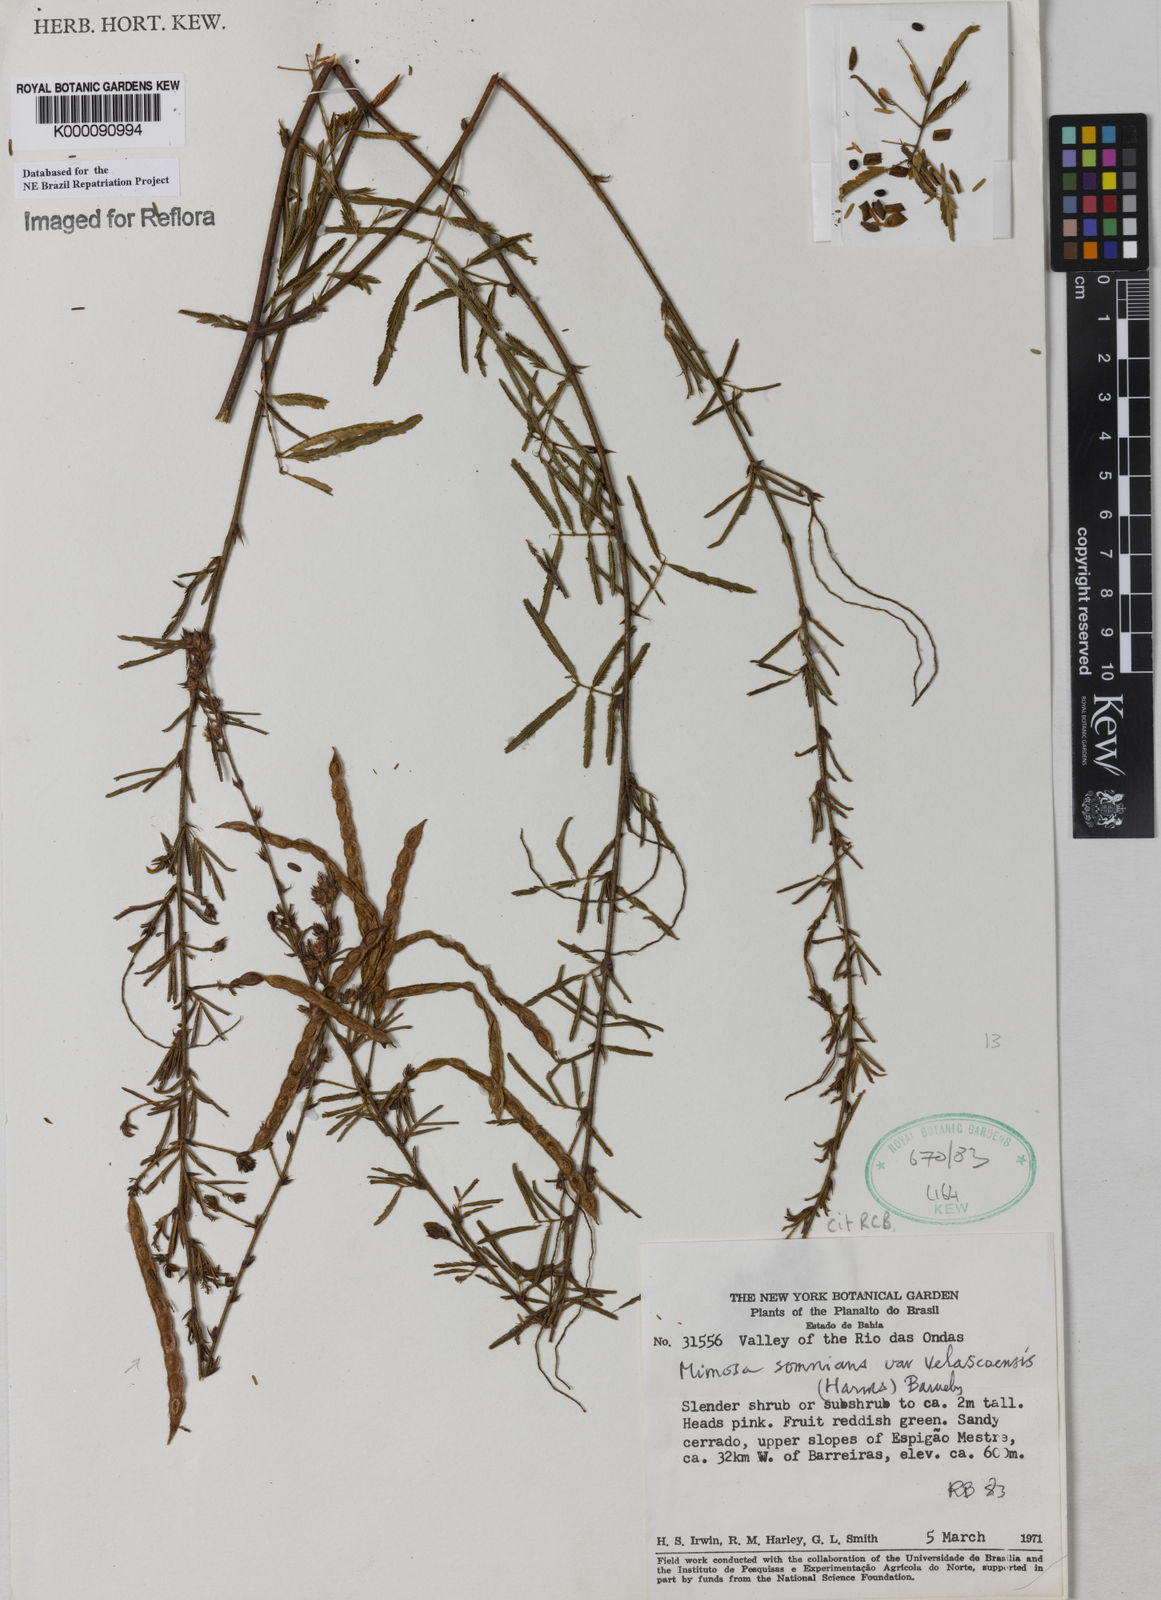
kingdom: Plantae
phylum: Tracheophyta
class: Magnoliopsida
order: Fabales
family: Fabaceae
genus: Mimosa
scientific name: Mimosa somnians
